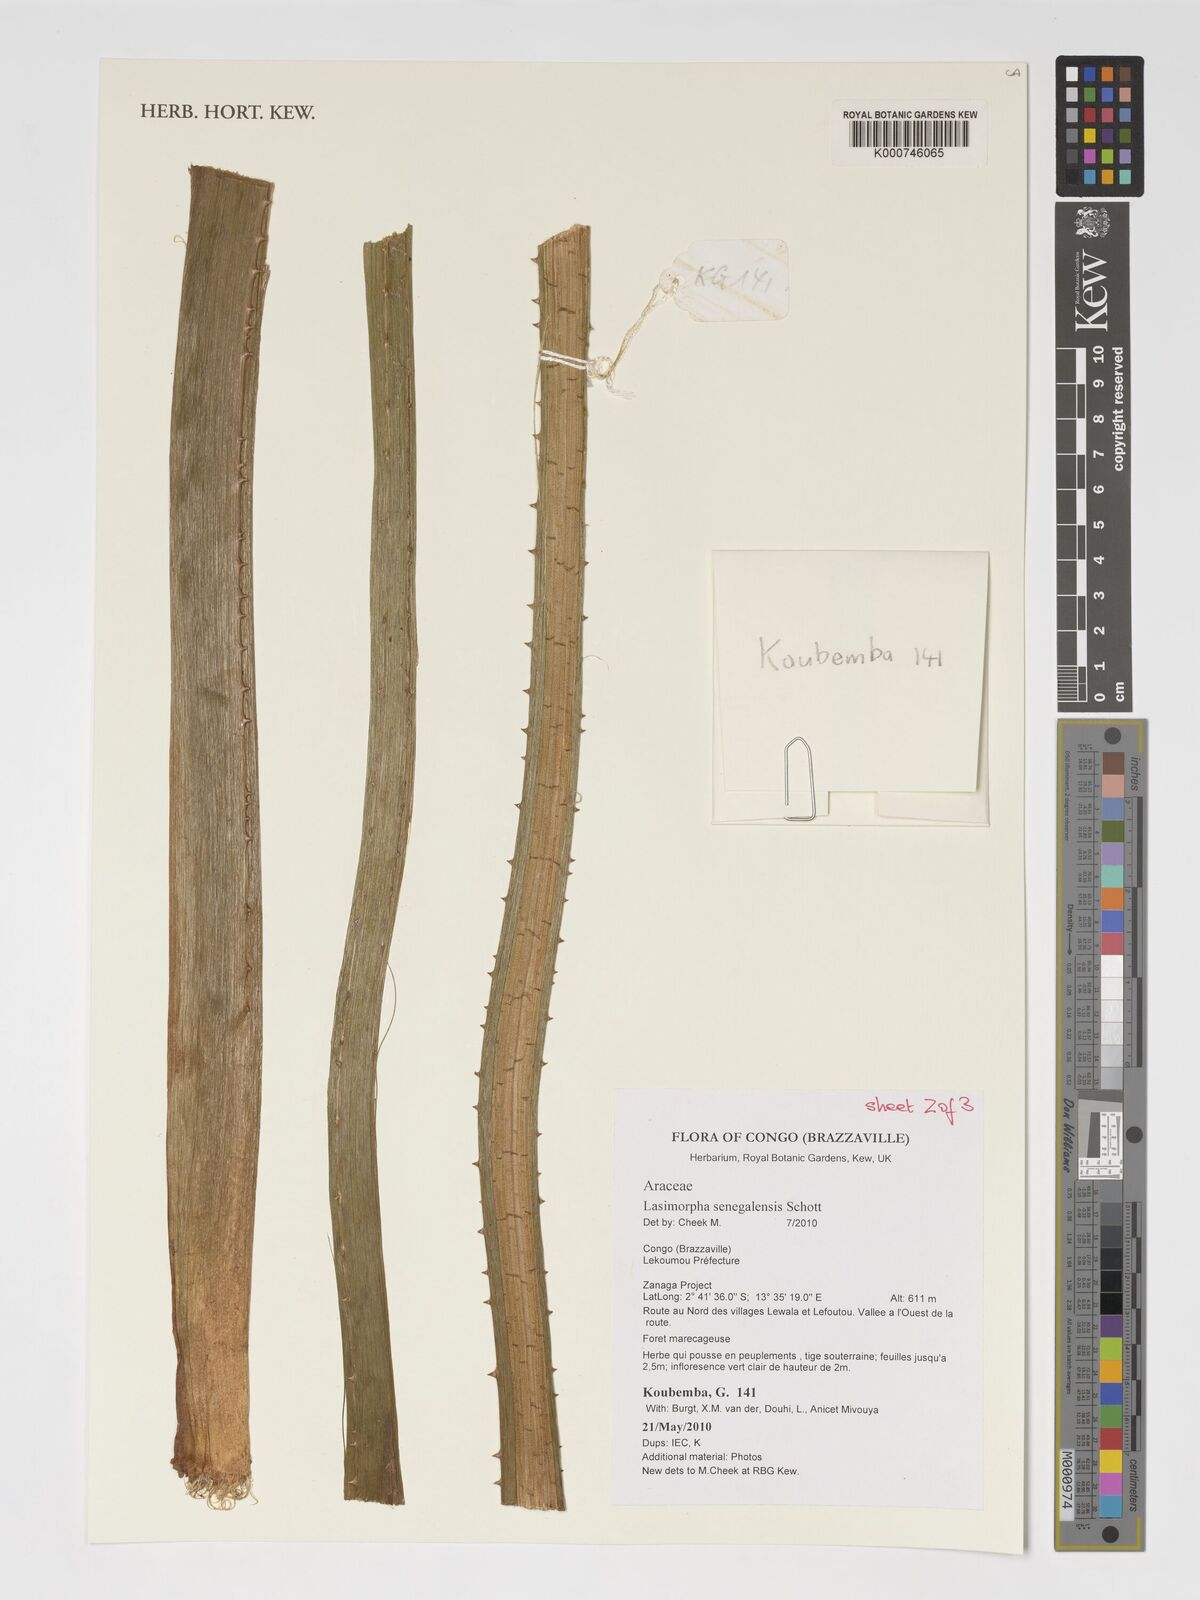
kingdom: Plantae
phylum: Tracheophyta
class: Liliopsida
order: Alismatales
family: Araceae
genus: Lasimorpha
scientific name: Lasimorpha senegalensis
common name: Swamp arum
